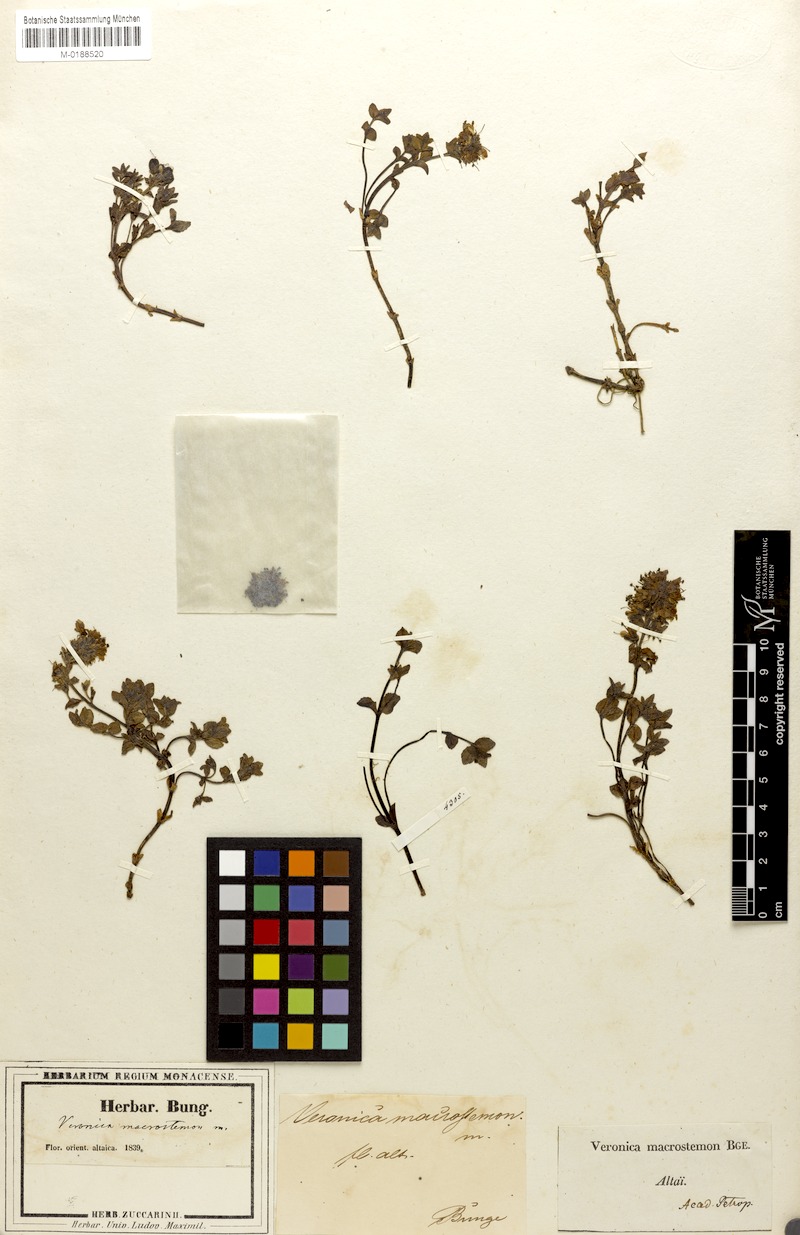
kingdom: Plantae
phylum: Tracheophyta
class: Magnoliopsida
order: Lamiales
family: Plantaginaceae
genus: Veronica
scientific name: Veronica macrostemon
